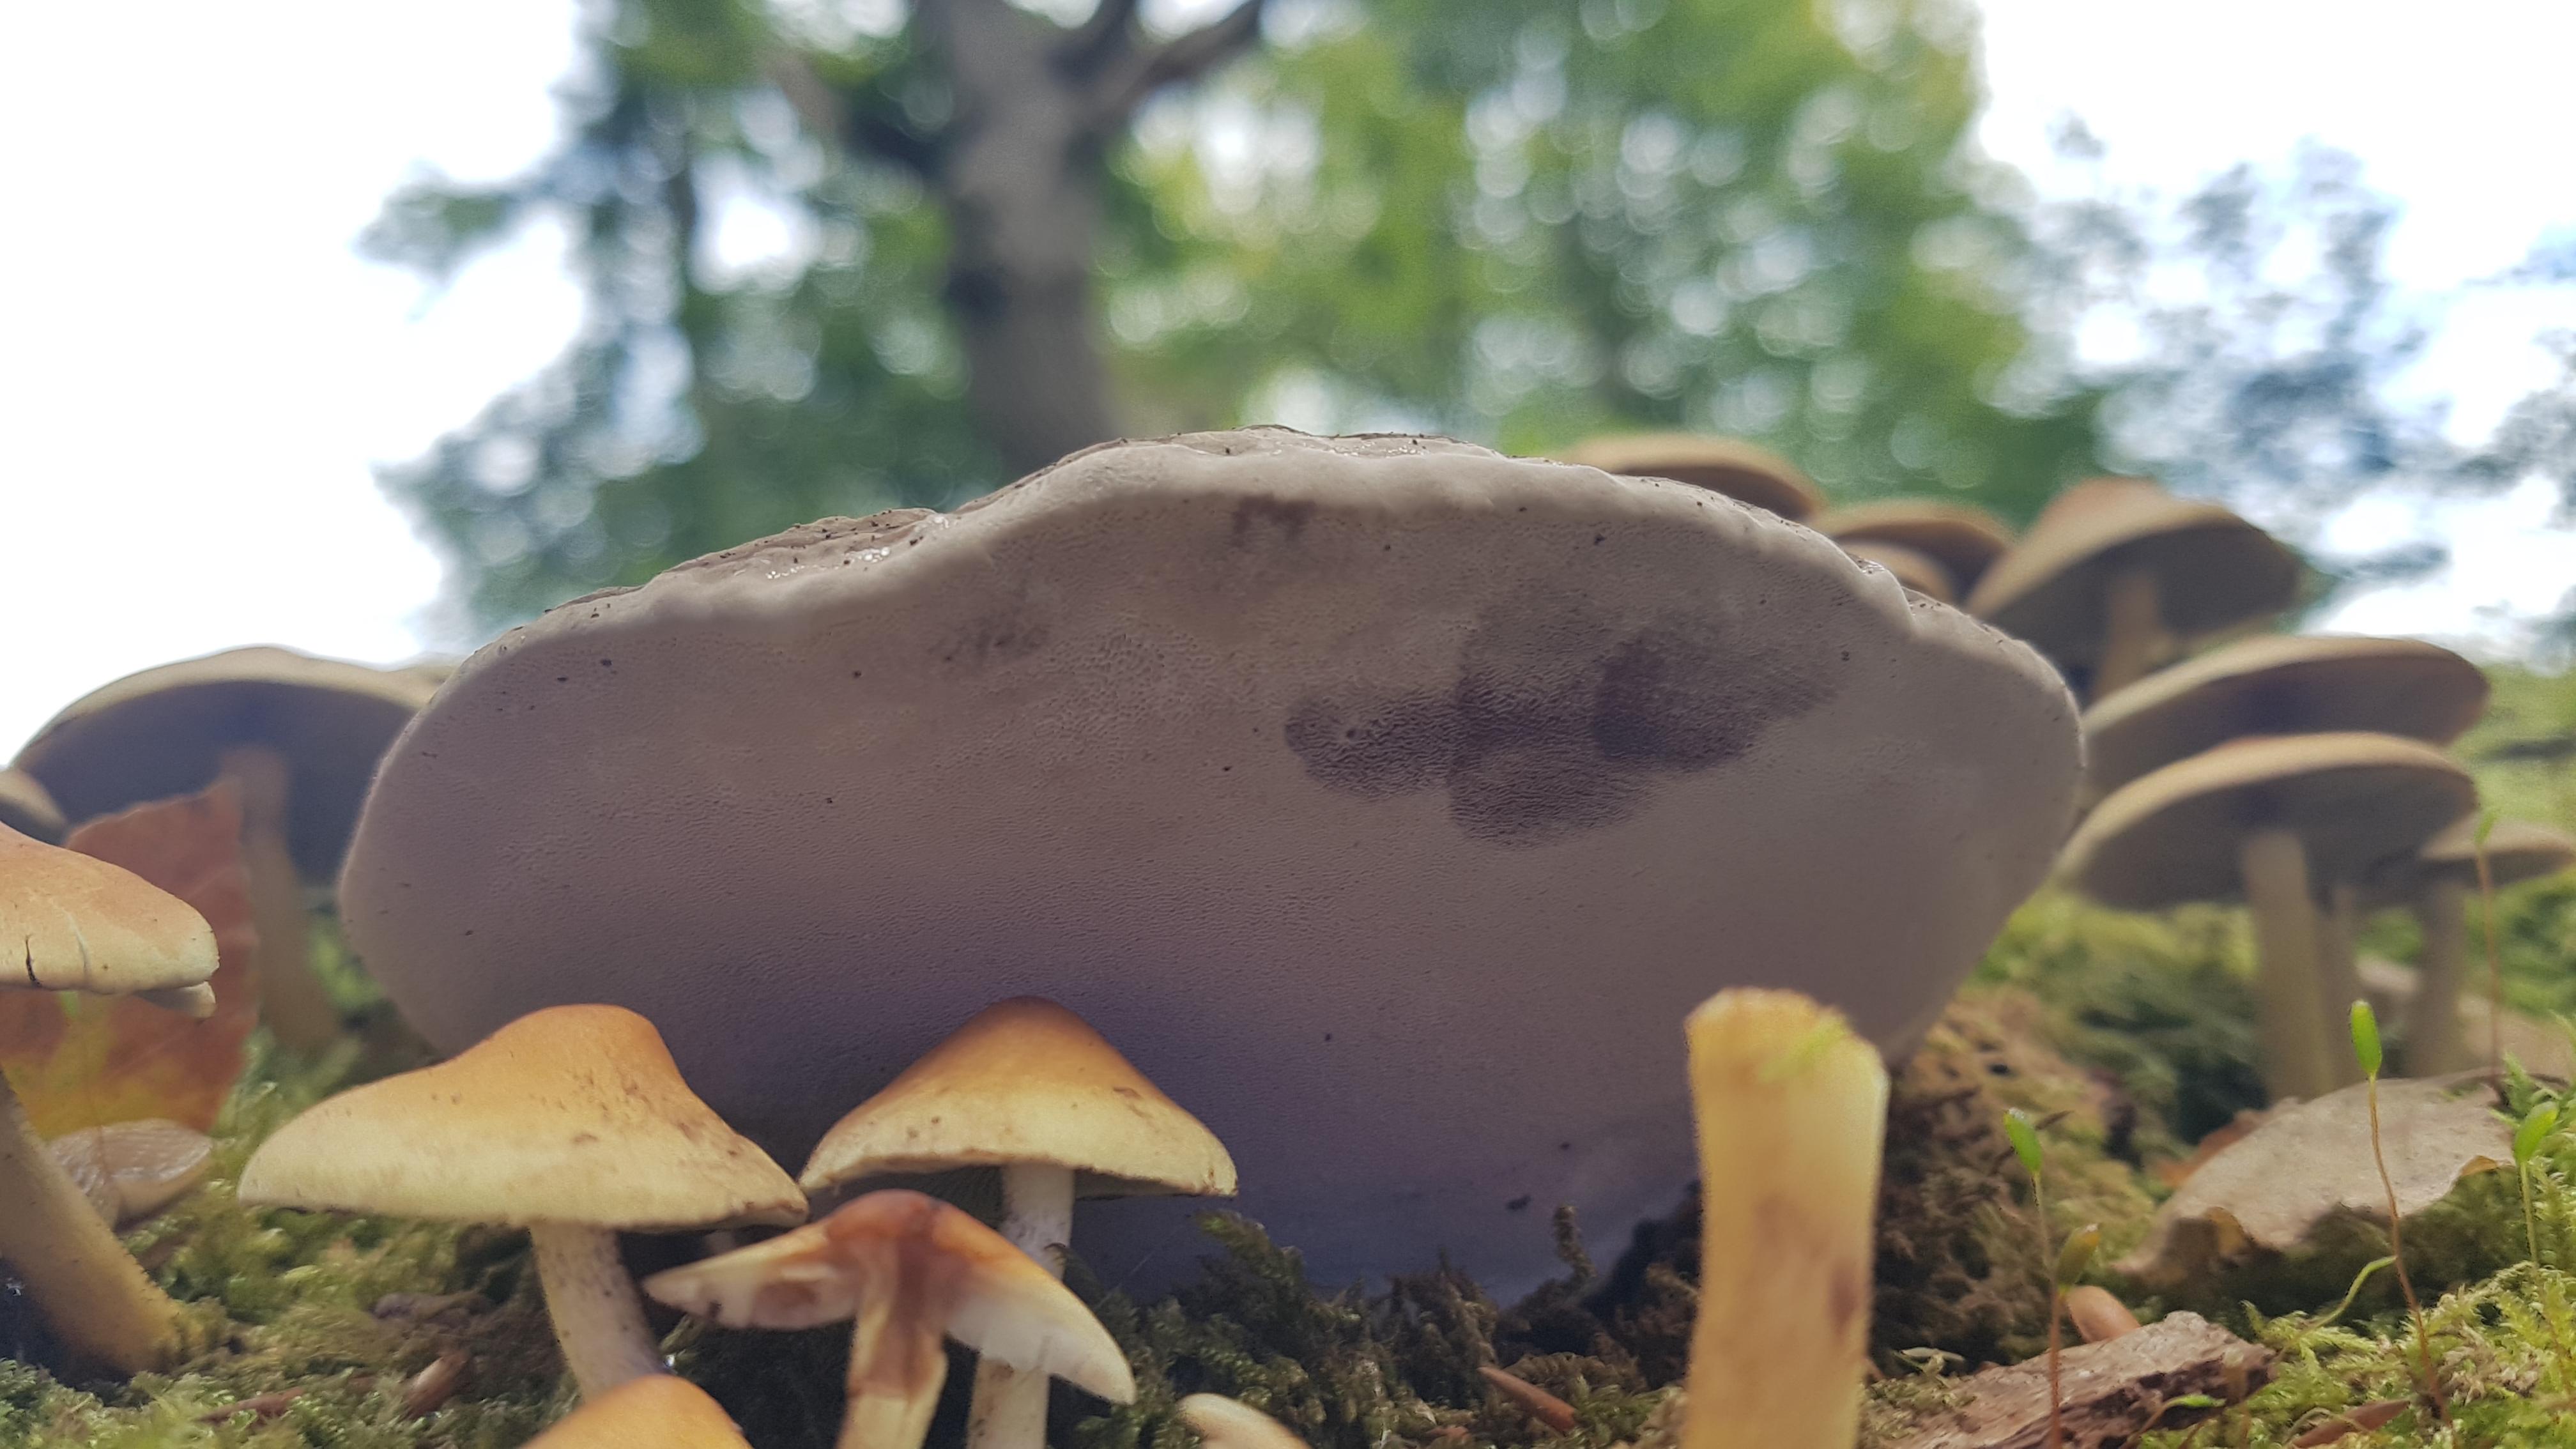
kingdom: Fungi
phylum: Basidiomycota
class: Agaricomycetes
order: Polyporales
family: Polyporaceae
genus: Ganoderma
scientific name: Ganoderma applanatum
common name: flad lakporesvamp
